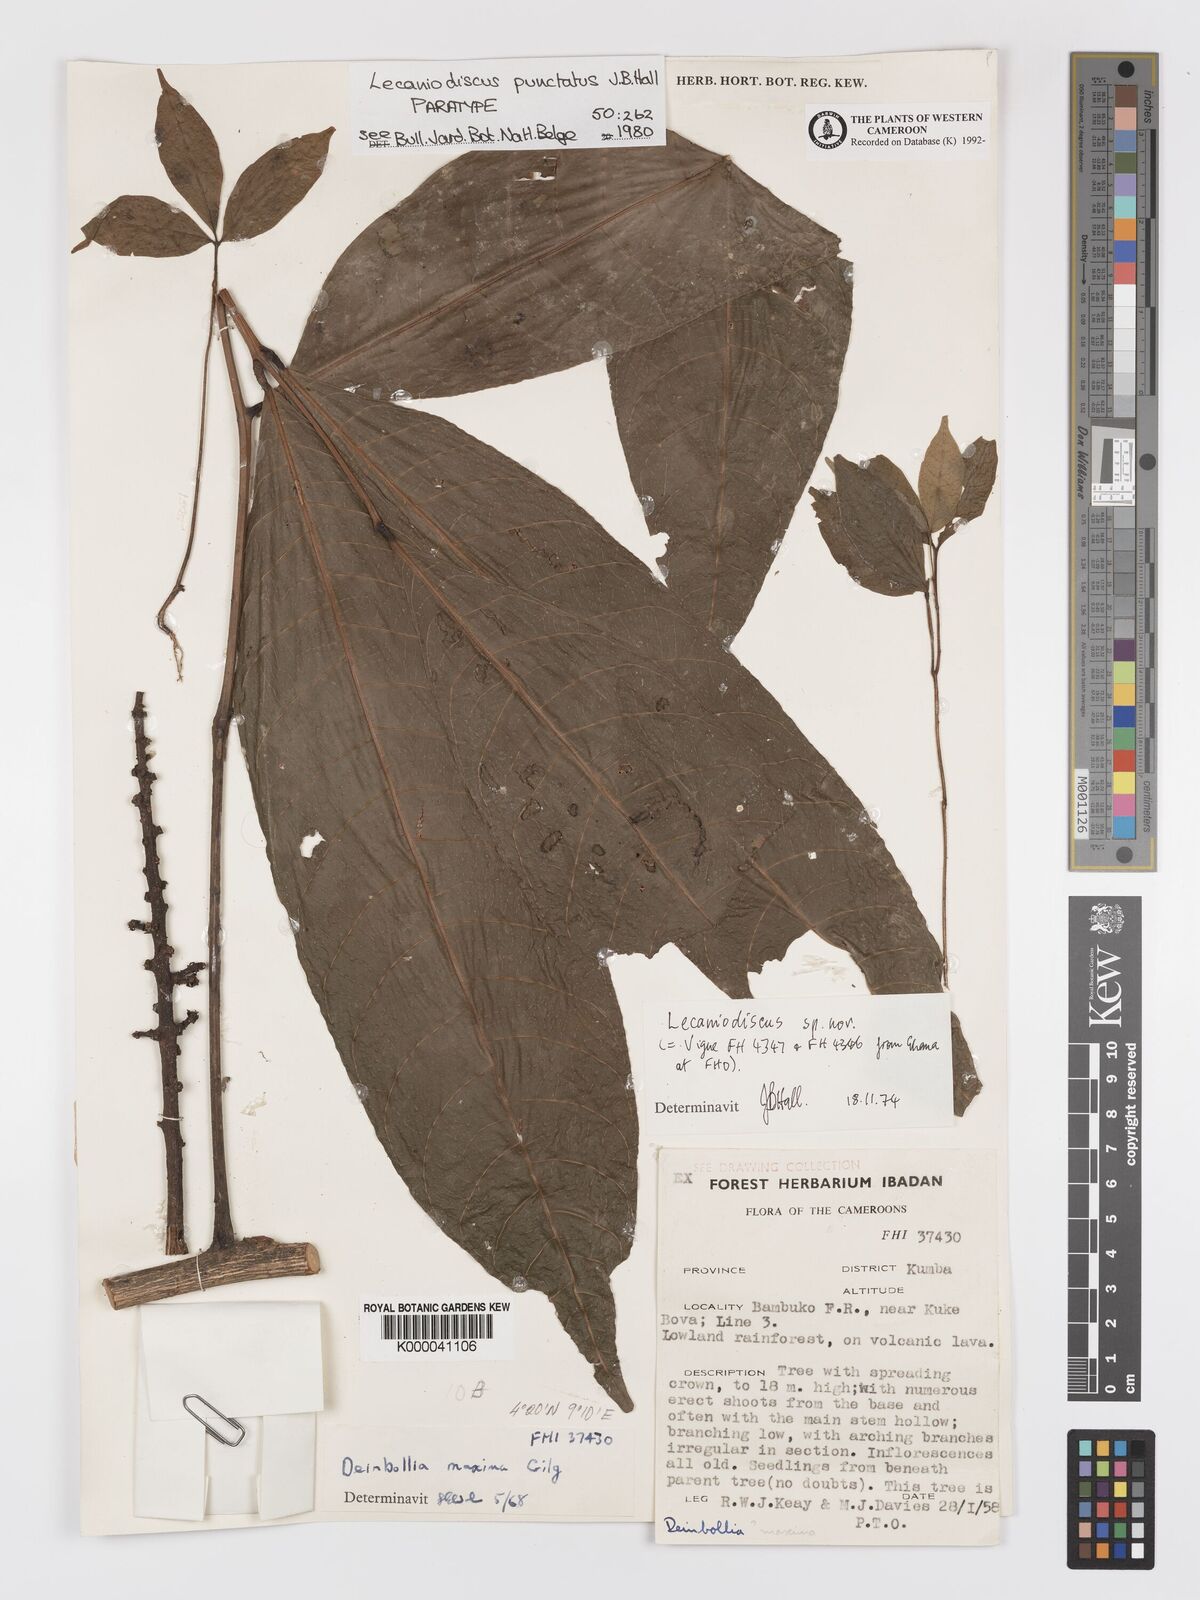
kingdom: Plantae
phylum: Tracheophyta
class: Magnoliopsida
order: Sapindales
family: Sapindaceae
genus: Lecaniodiscus
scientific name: Lecaniodiscus punctatus
